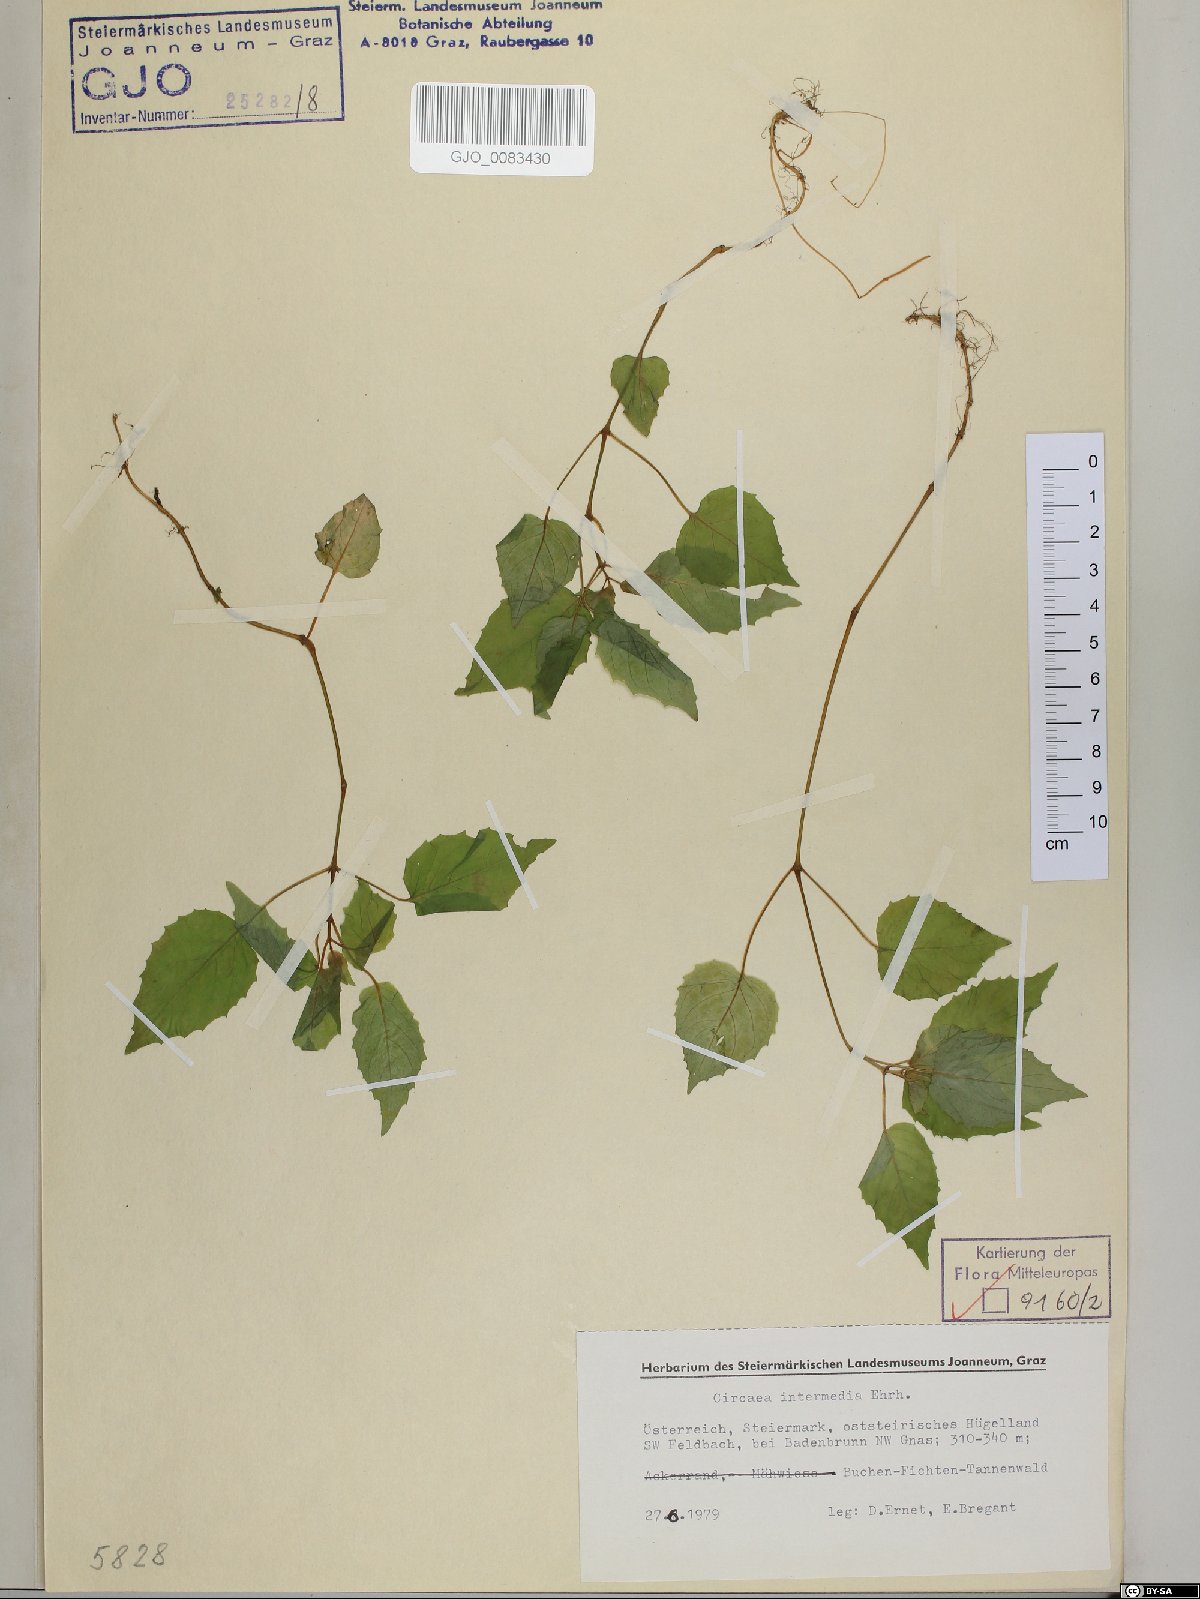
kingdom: Plantae
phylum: Tracheophyta
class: Magnoliopsida
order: Myrtales
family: Onagraceae
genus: Circaea
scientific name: Circaea intermedia
